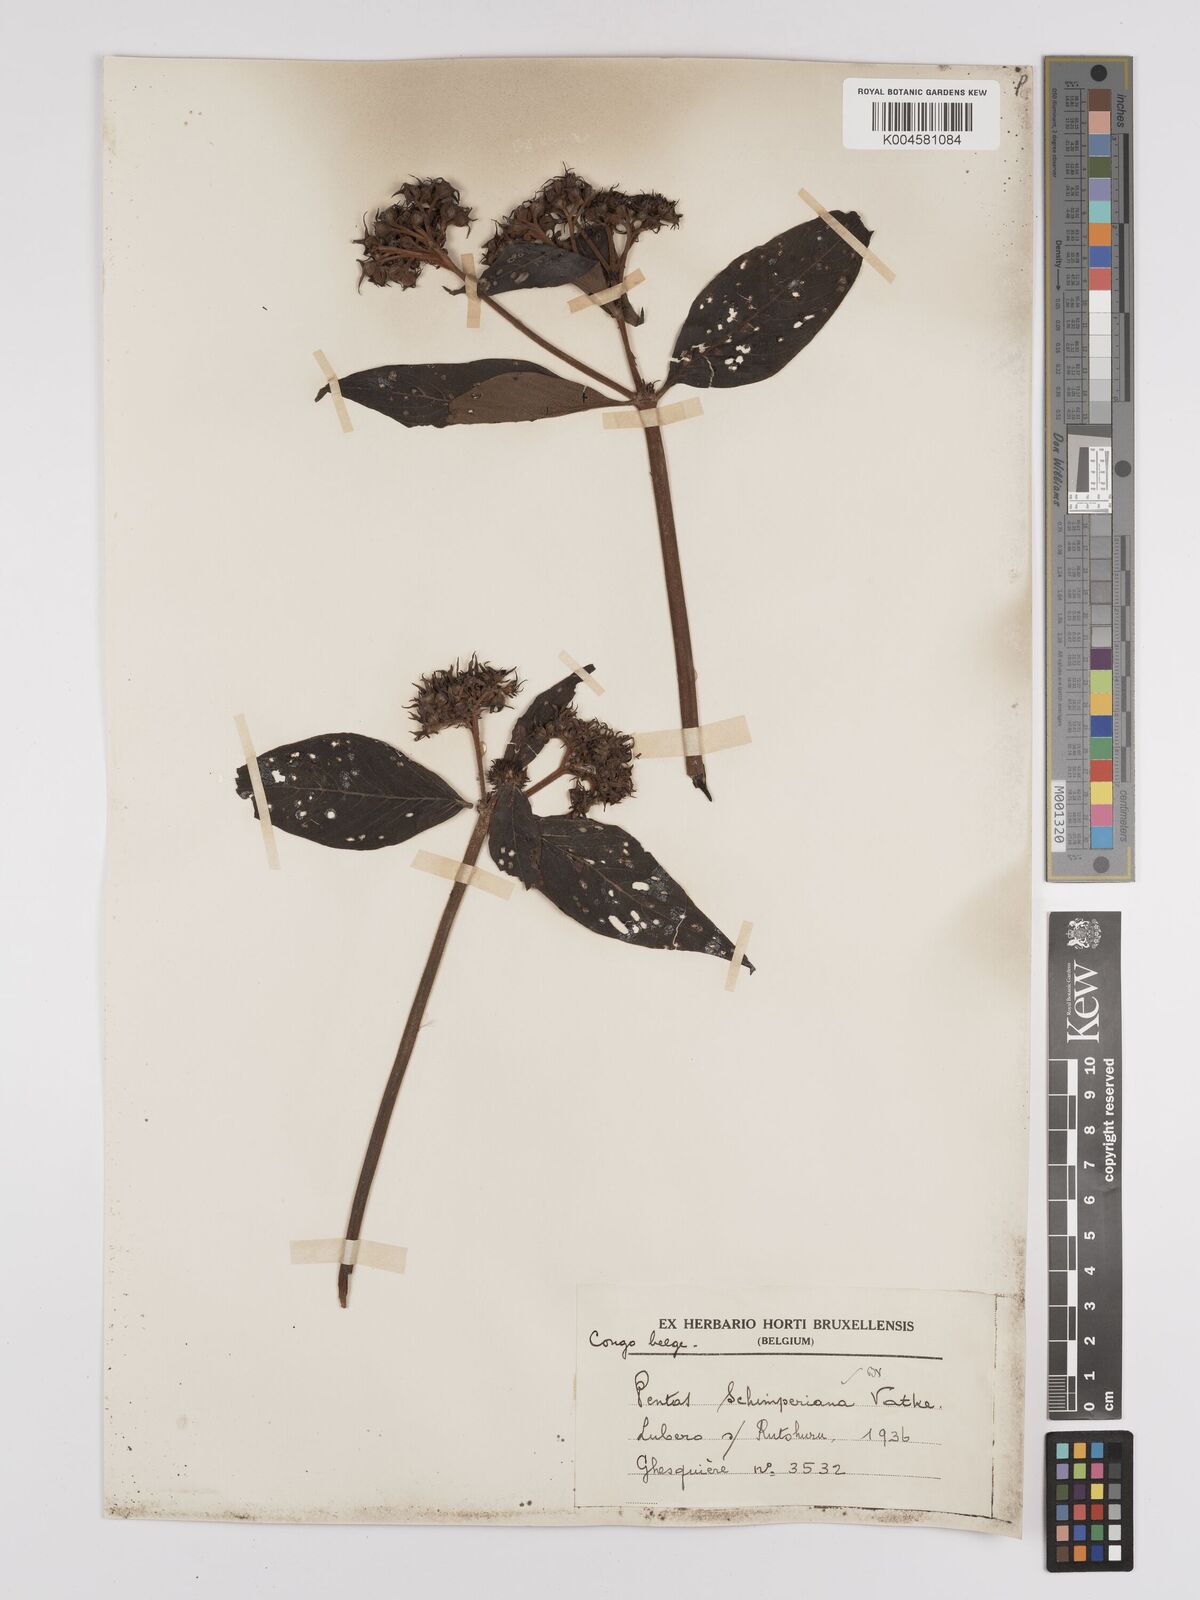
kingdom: Plantae
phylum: Tracheophyta
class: Magnoliopsida
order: Gentianales
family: Rubiaceae
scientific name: Rubiaceae
